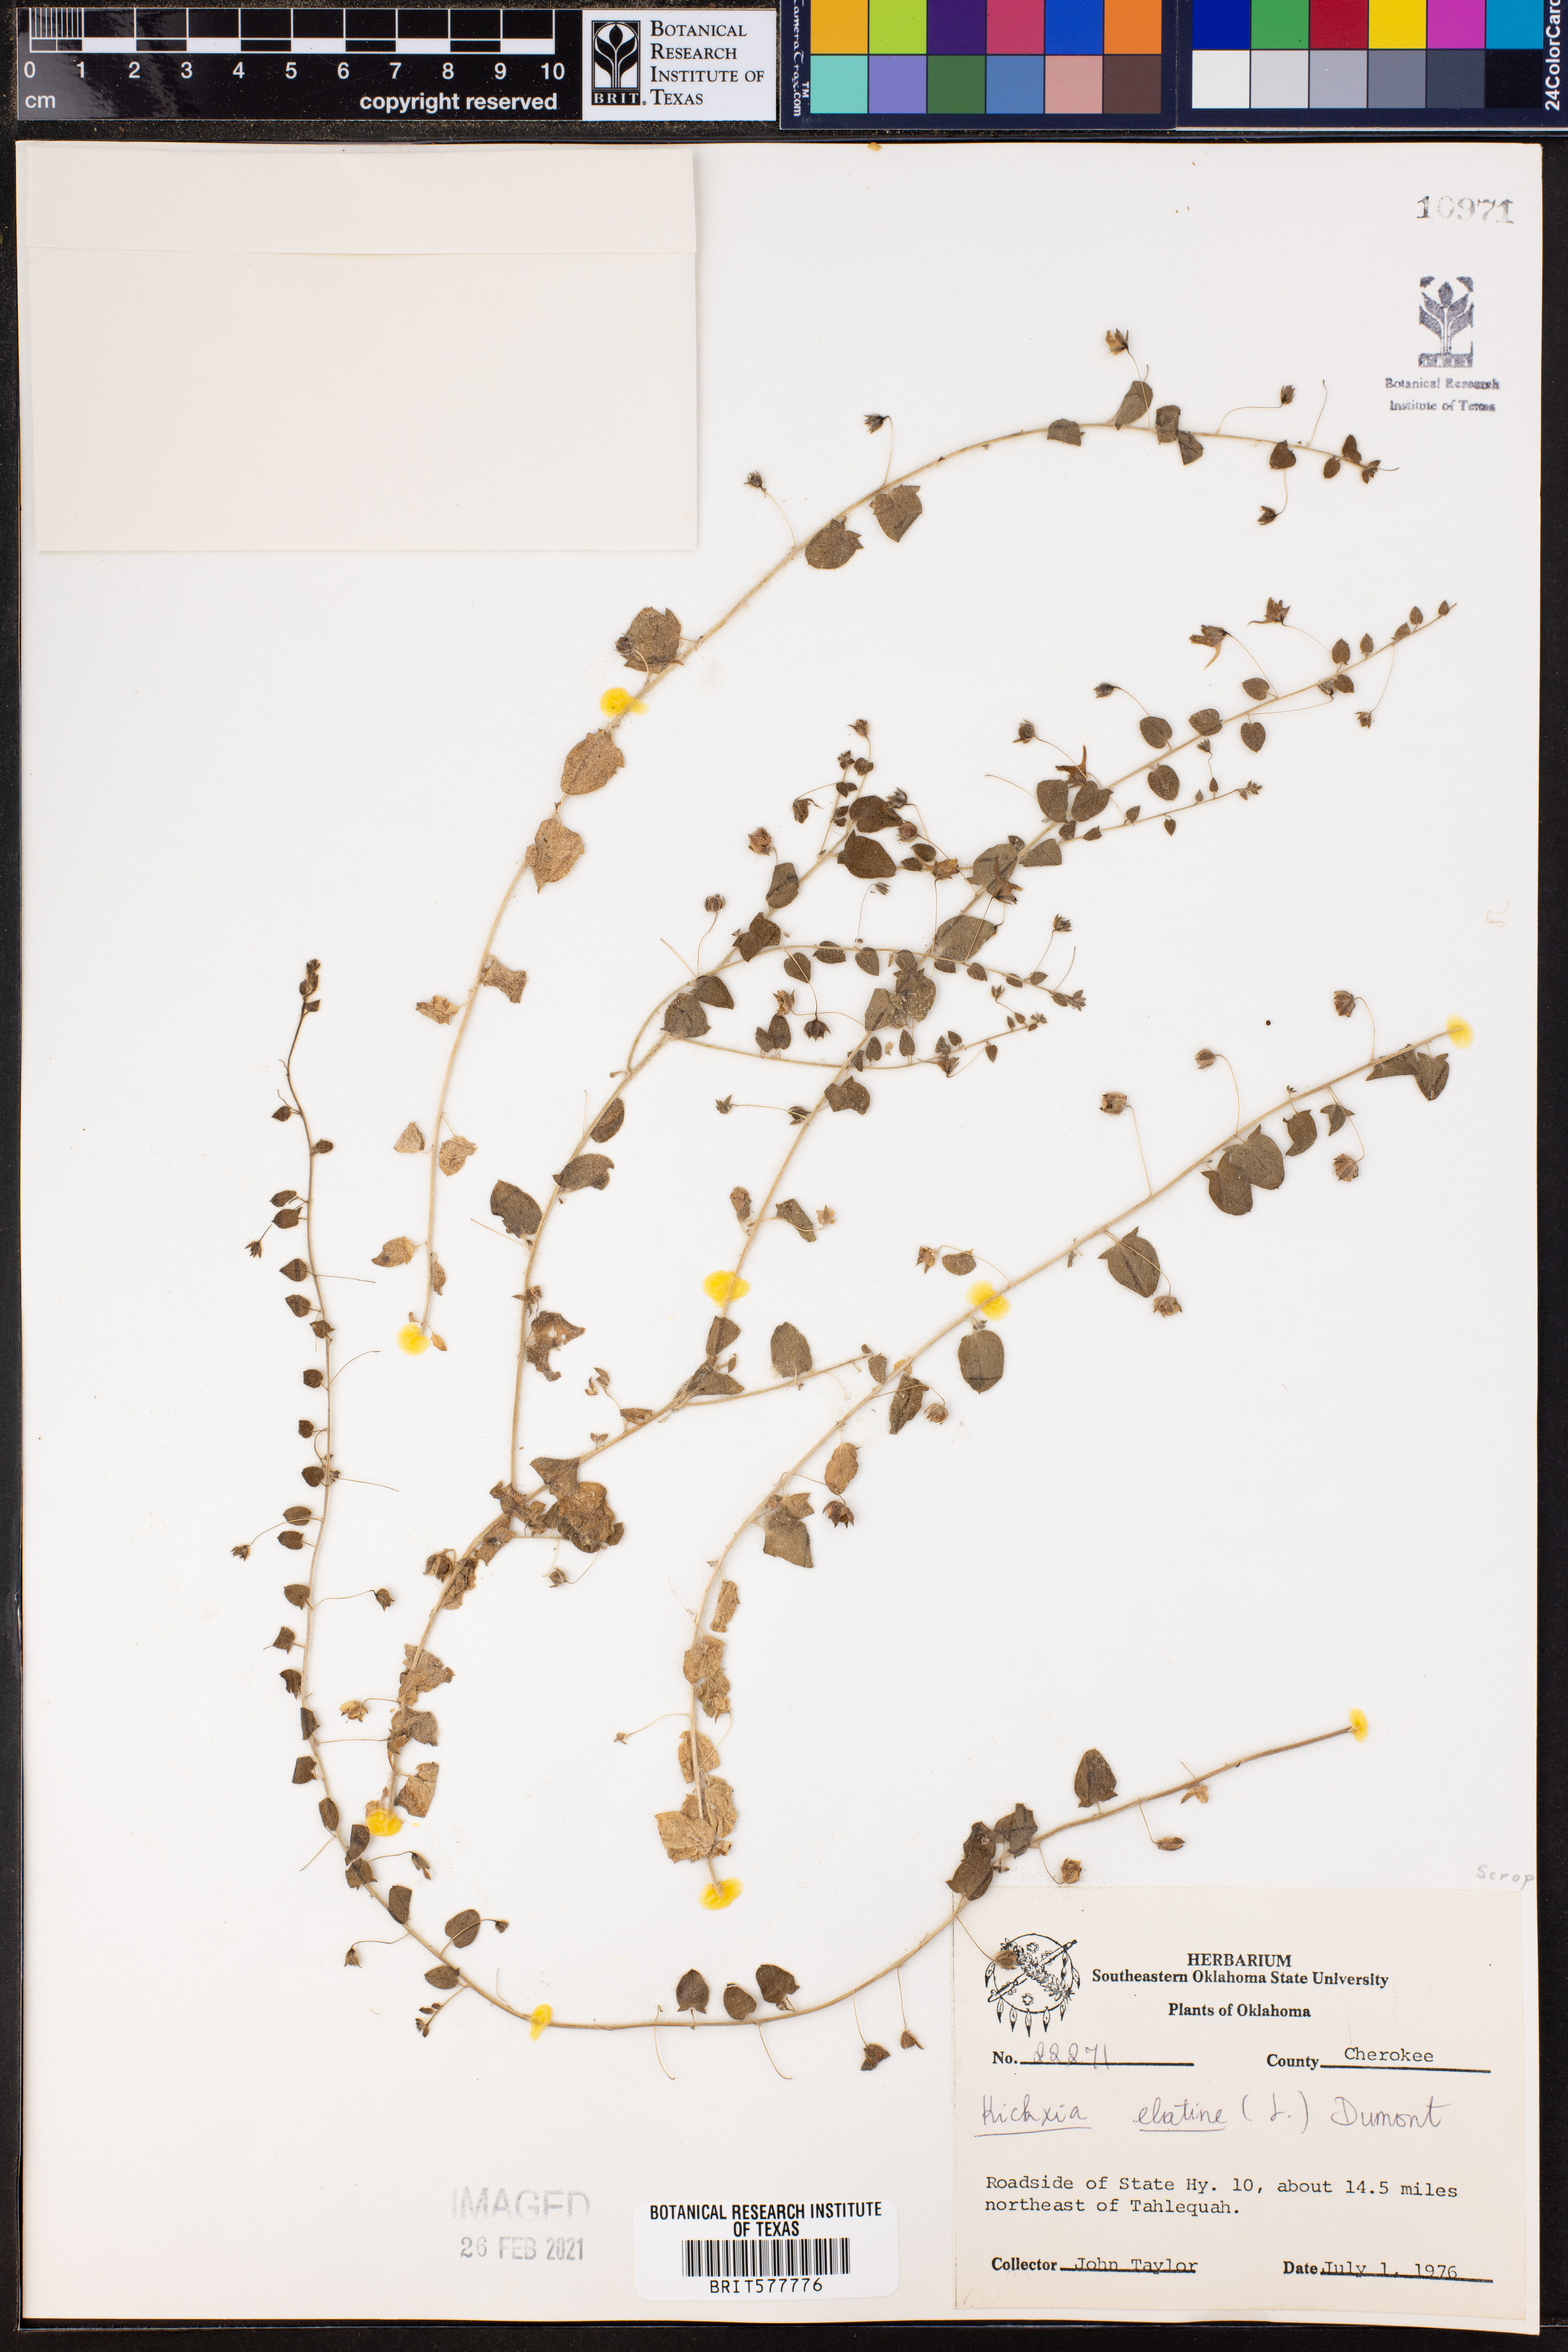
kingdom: Plantae
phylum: Tracheophyta
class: Magnoliopsida
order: Lamiales
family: Plantaginaceae
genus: Kickxia
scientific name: Kickxia elatine
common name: Sharp-leaved fluellen
